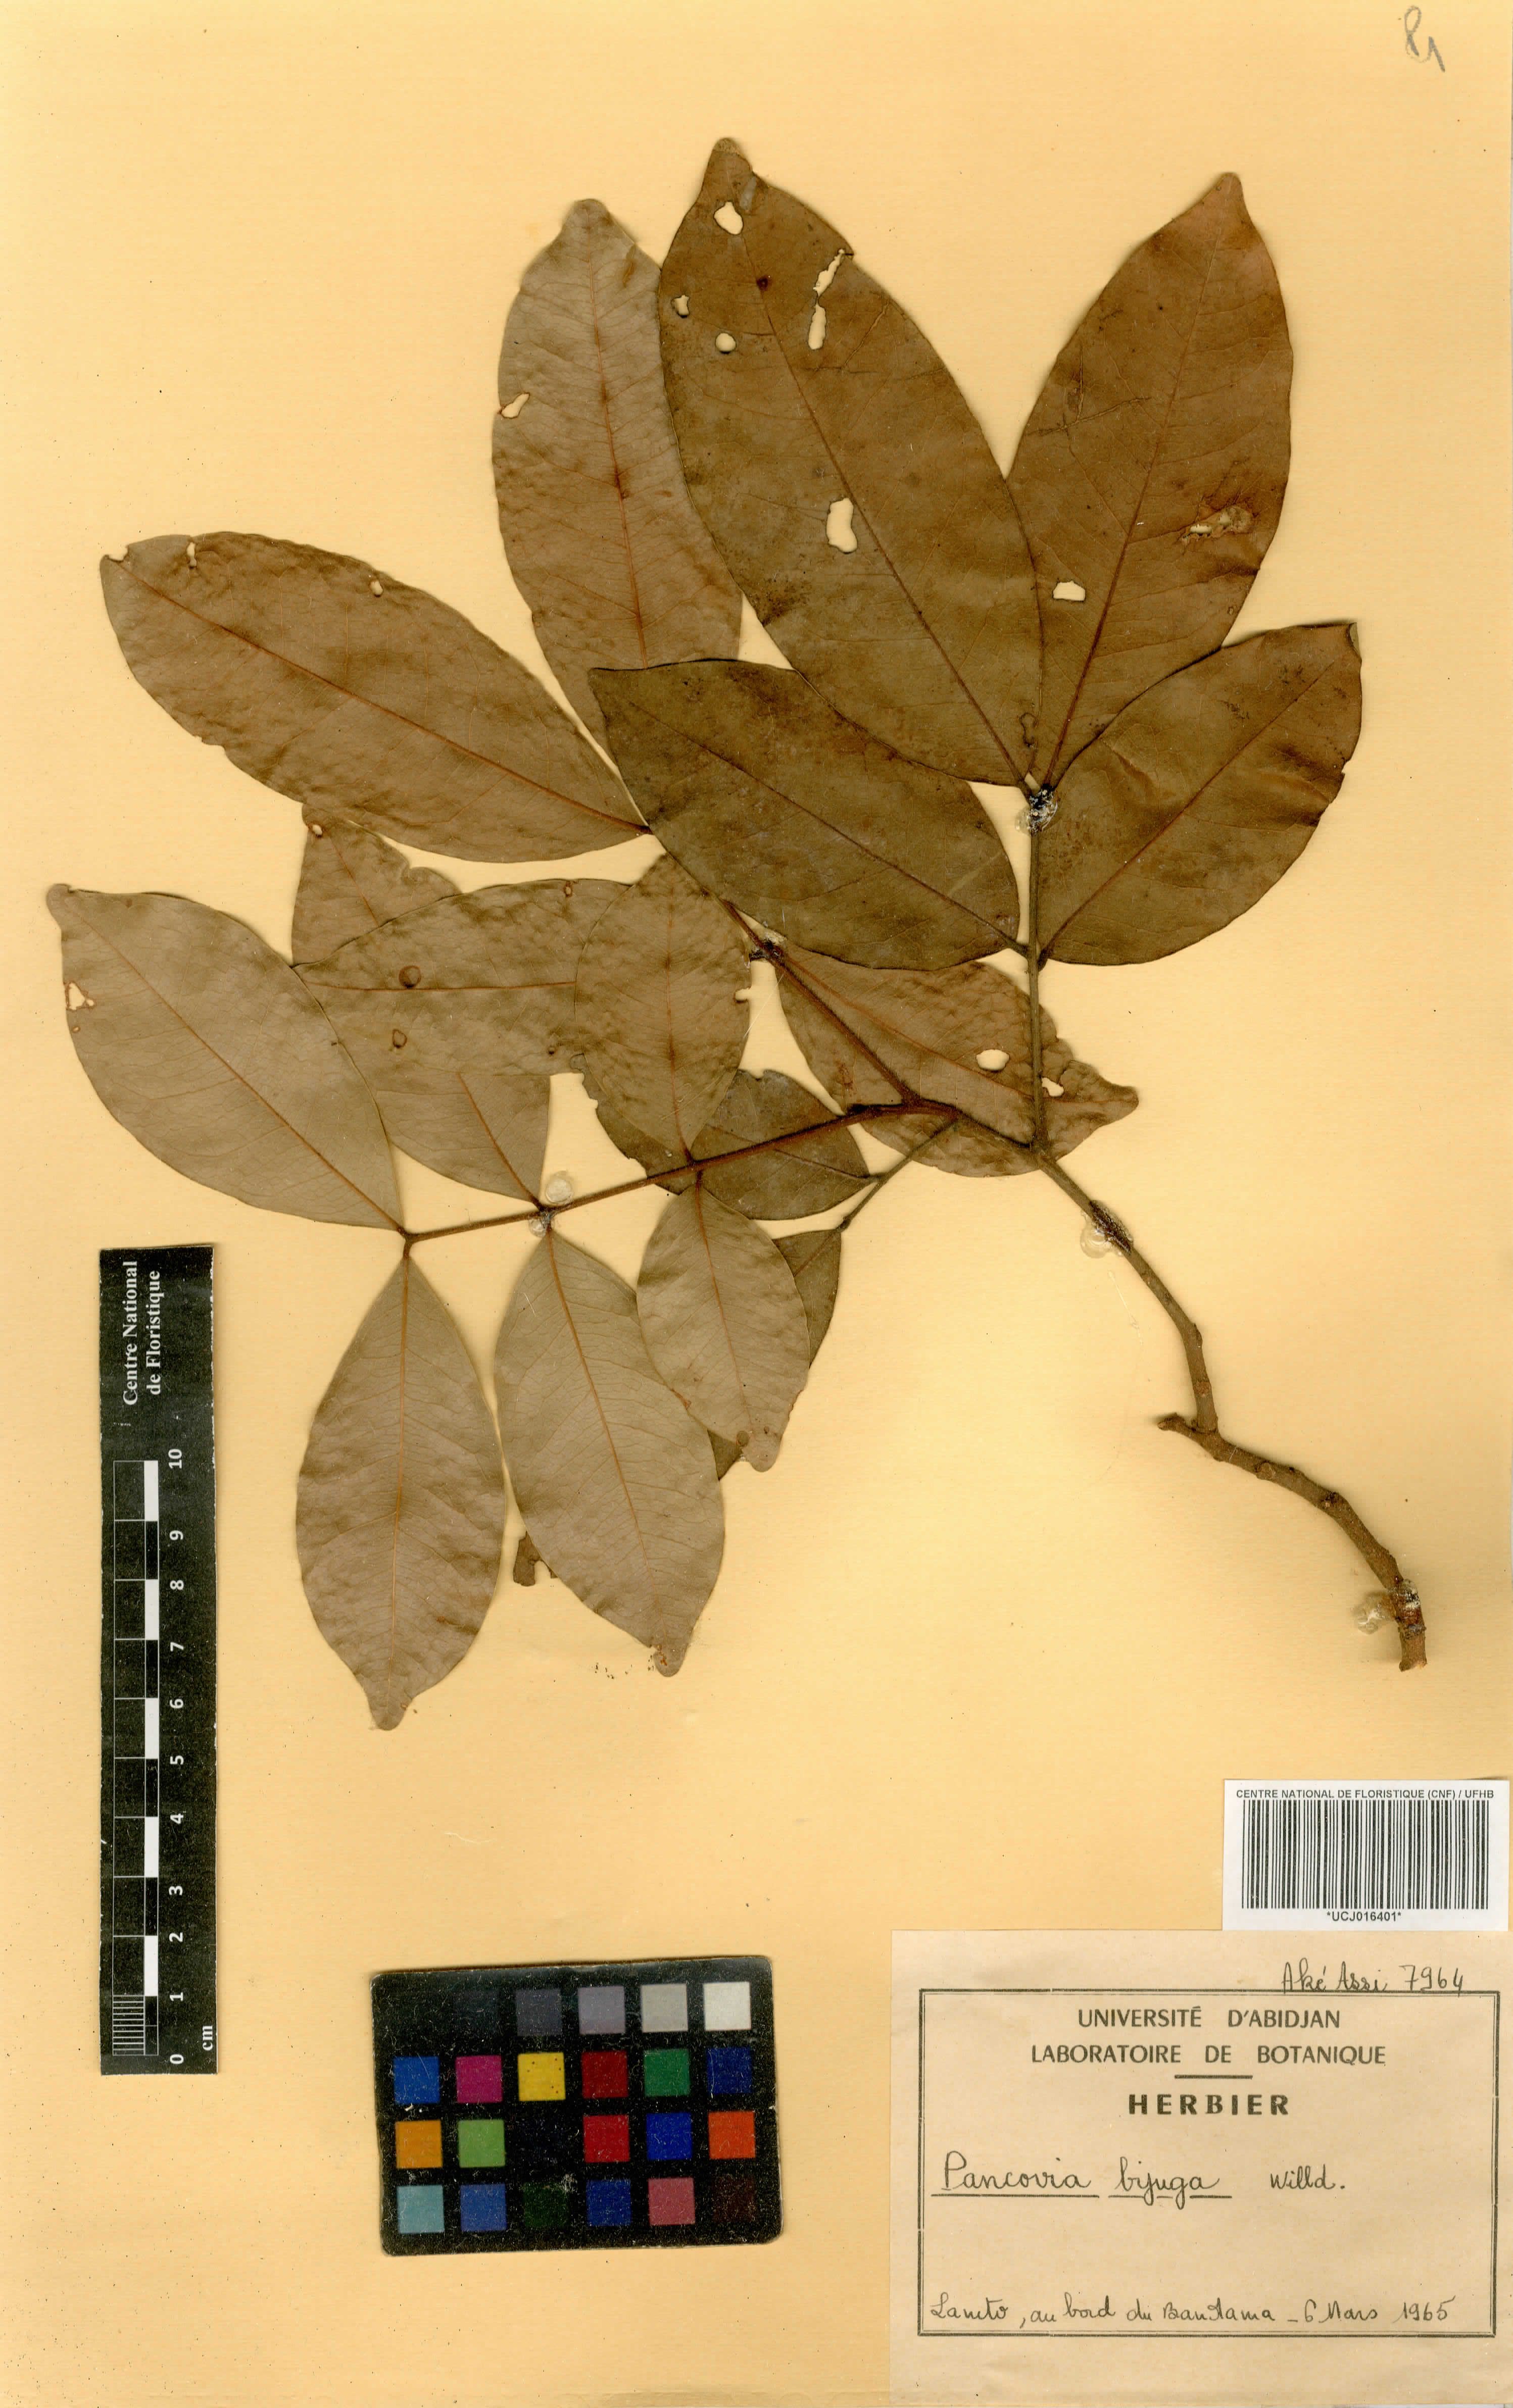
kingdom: Plantae
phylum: Tracheophyta
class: Magnoliopsida
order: Sapindales
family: Sapindaceae
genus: Pancovia
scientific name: Pancovia bijuga
